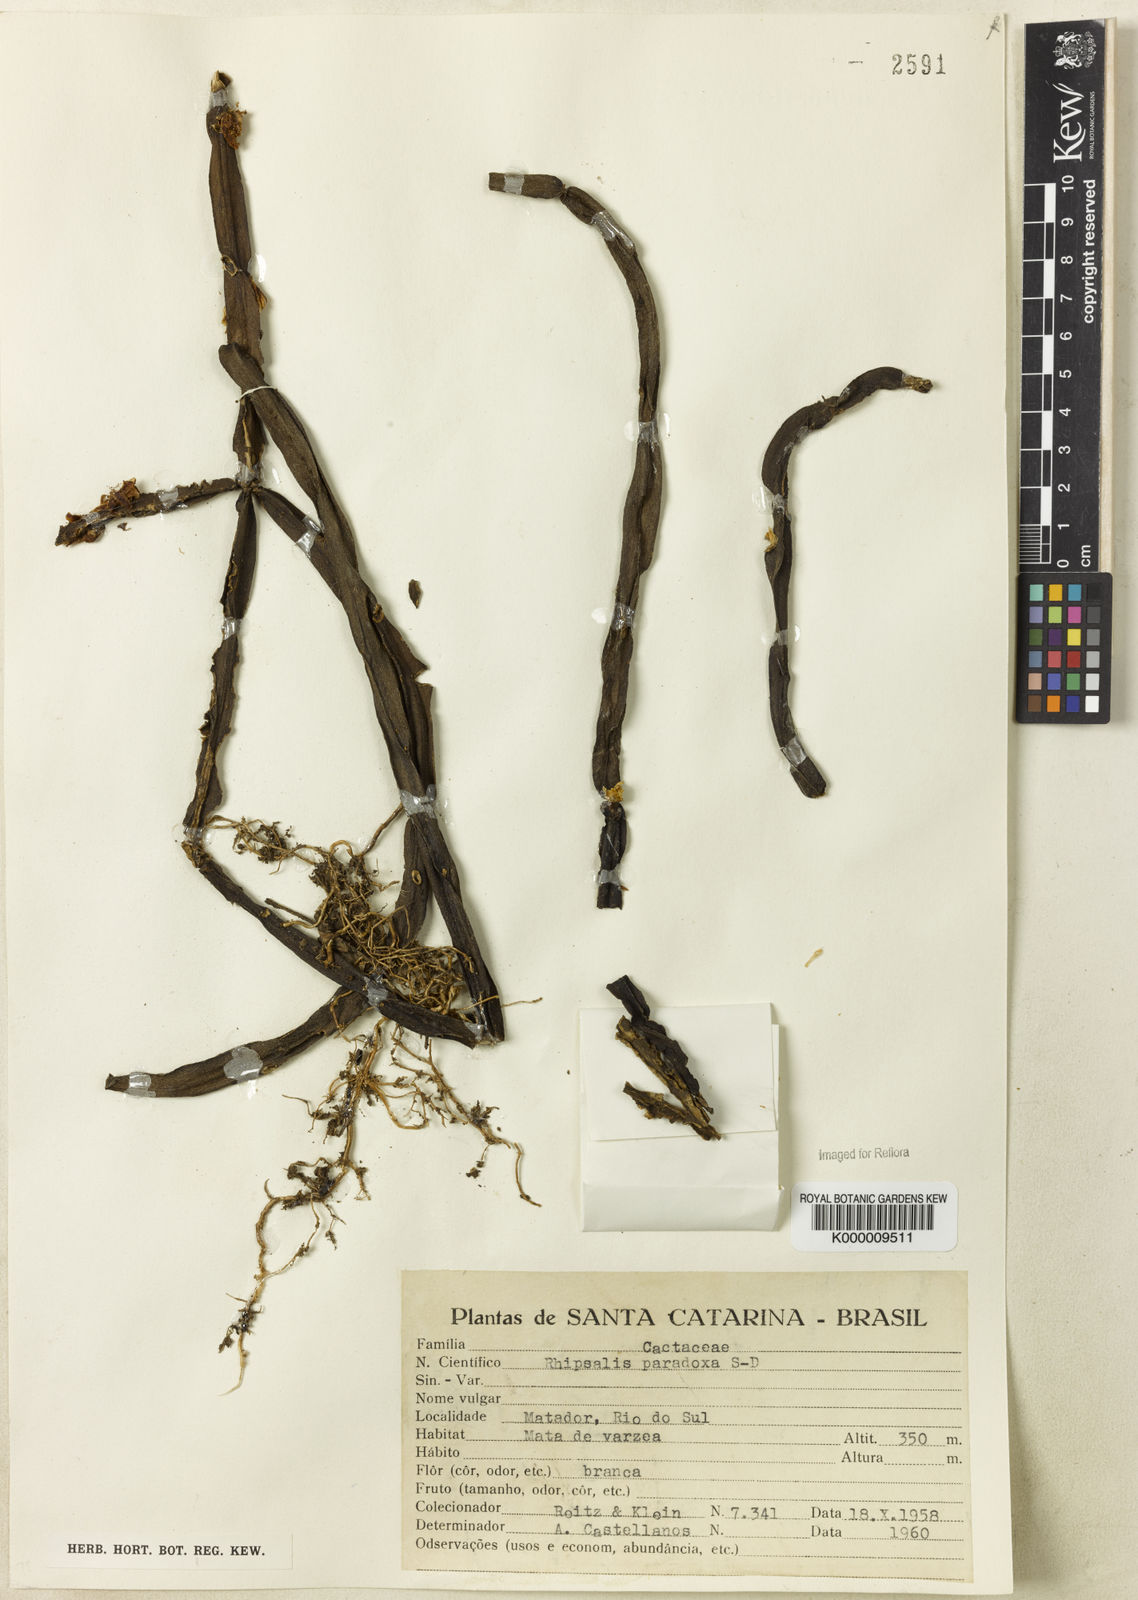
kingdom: Plantae
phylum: Tracheophyta
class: Magnoliopsida
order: Caryophyllales
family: Cactaceae
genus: Rhipsalis
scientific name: Rhipsalis paradoxa
